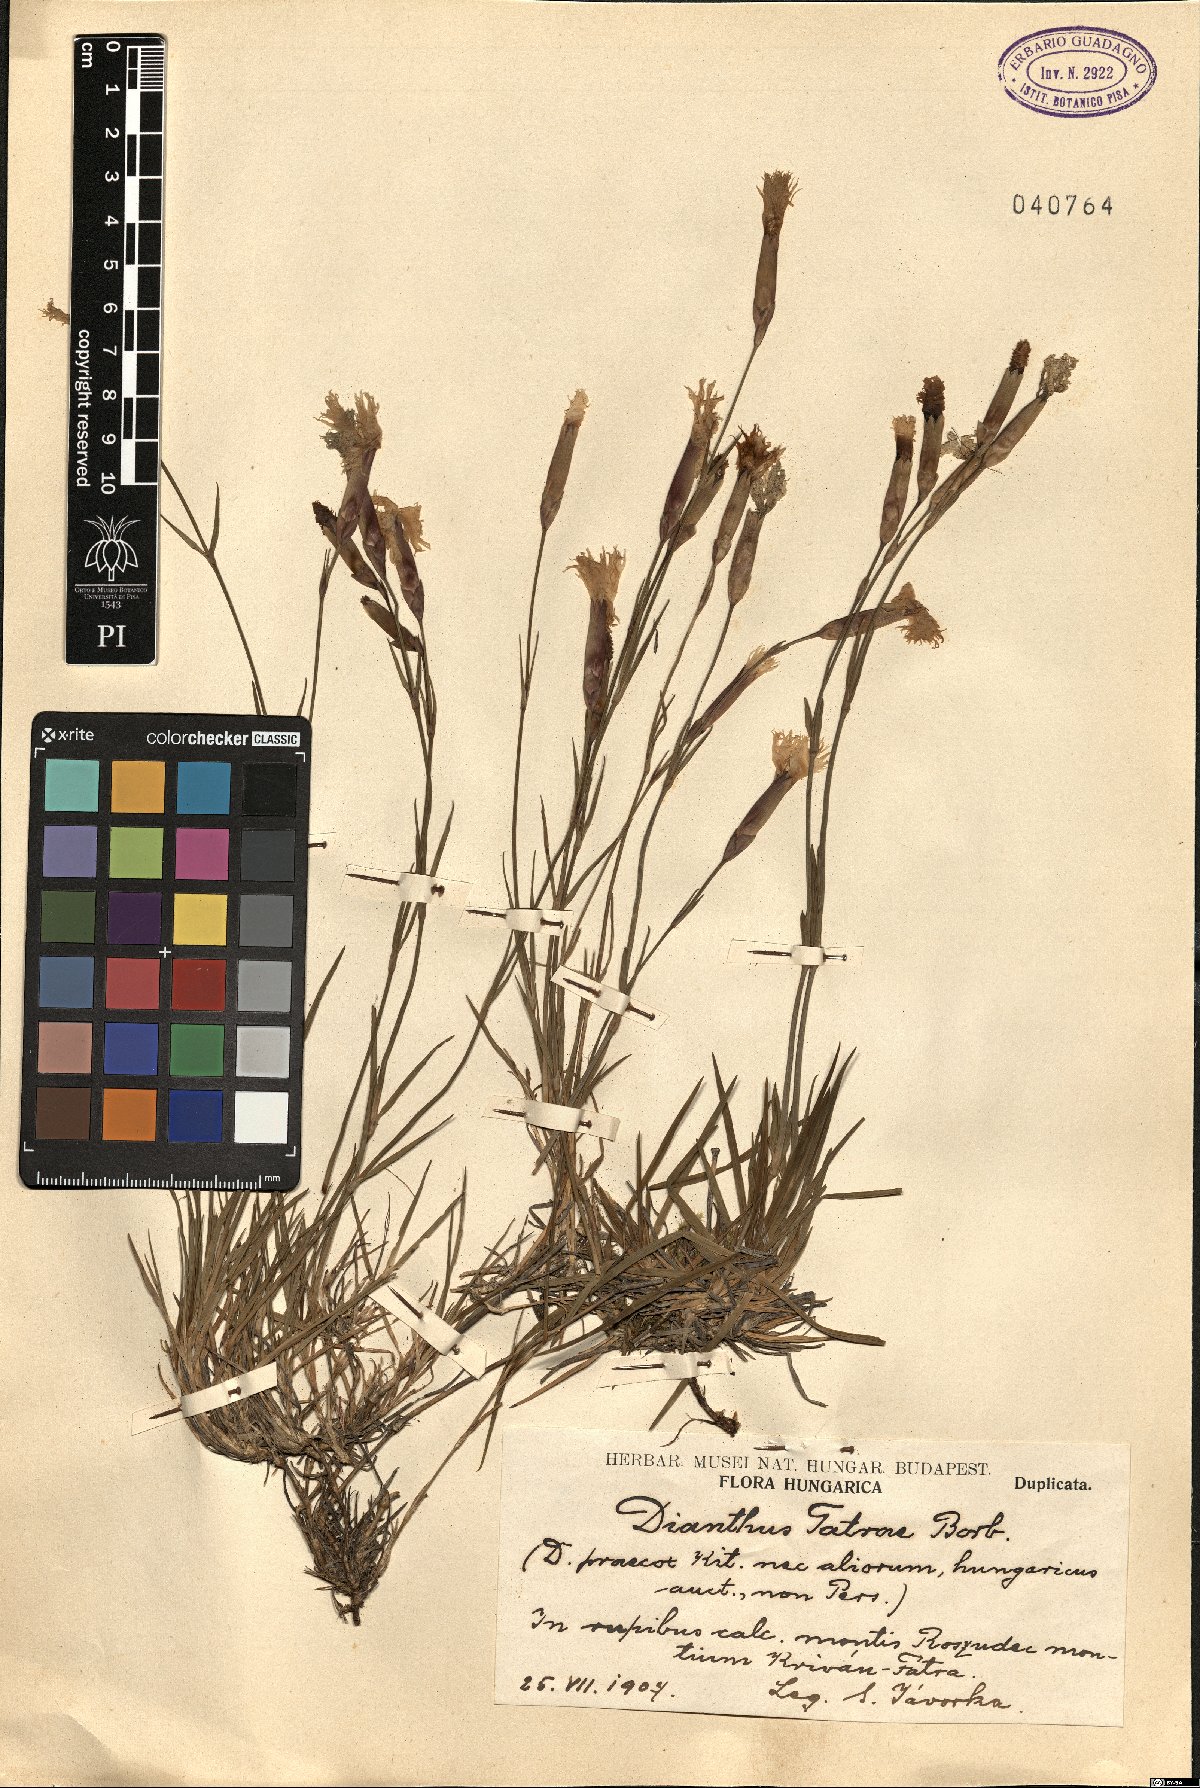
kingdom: Plantae
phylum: Tracheophyta
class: Magnoliopsida
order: Caryophyllales
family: Caryophyllaceae
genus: Dianthus
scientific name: Dianthus tatrae
